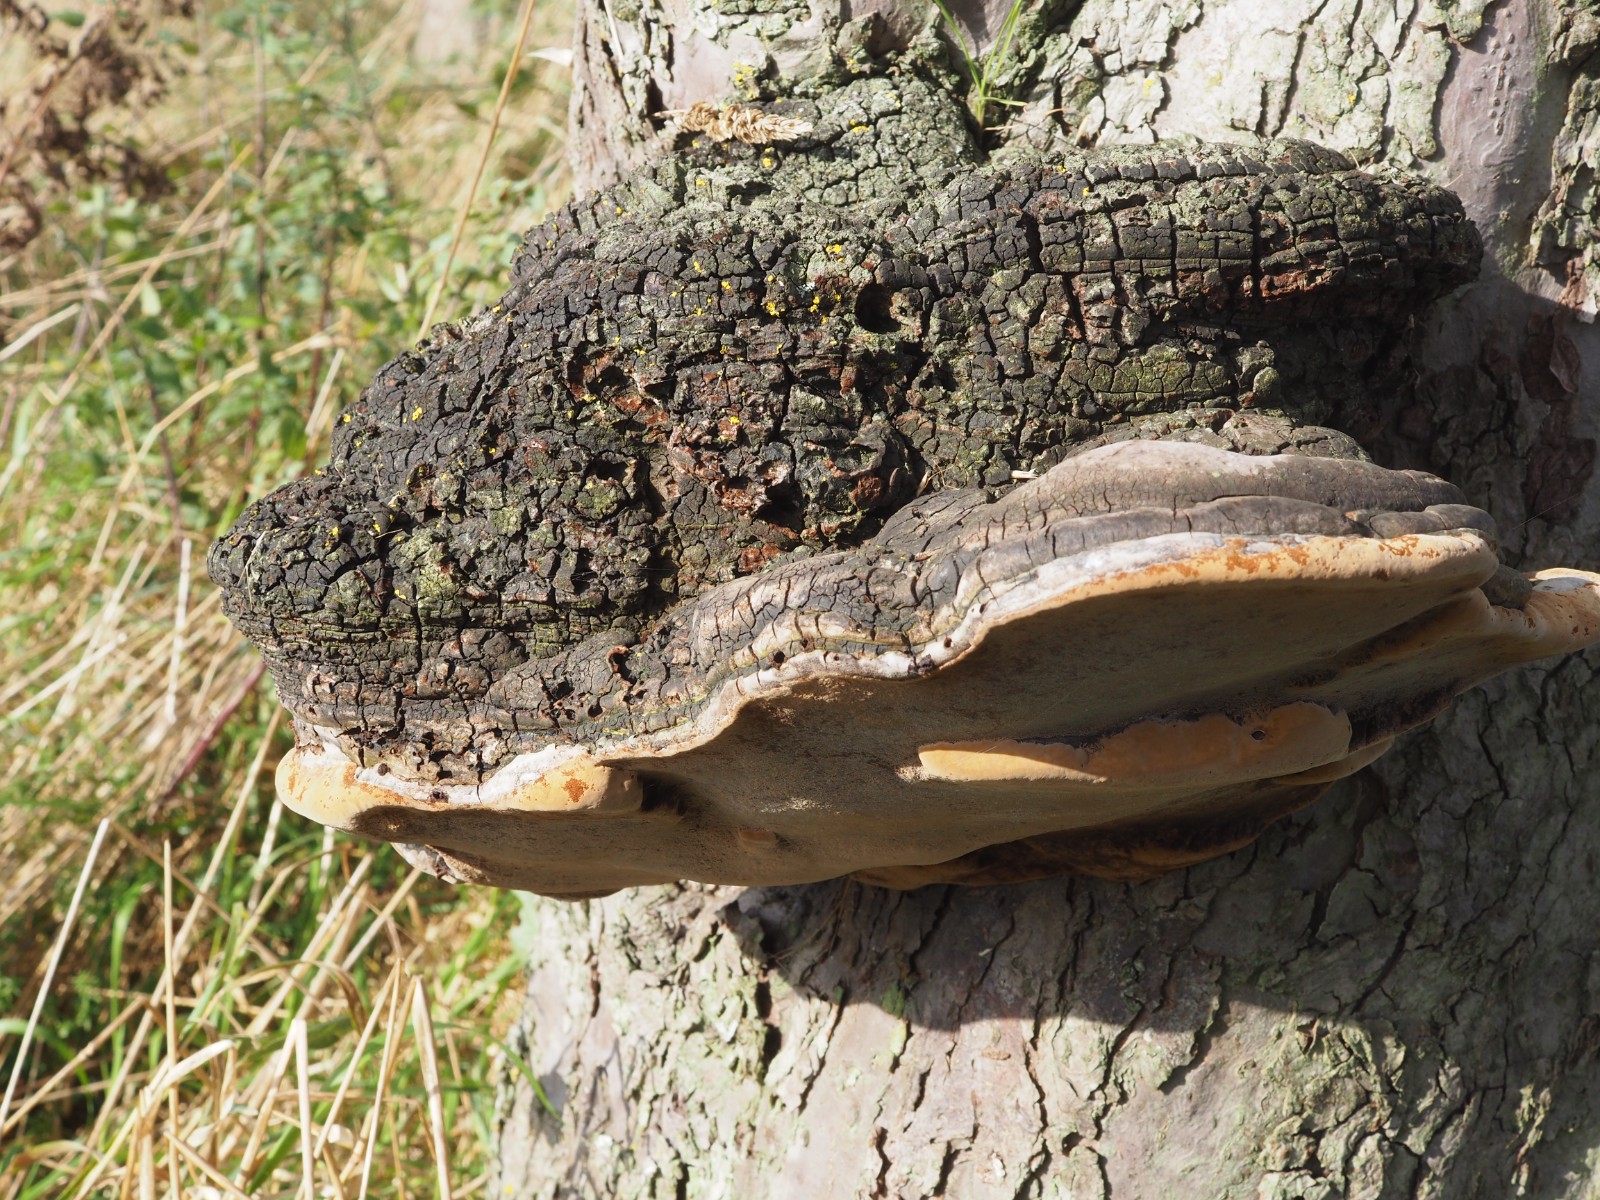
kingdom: Fungi
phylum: Basidiomycota
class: Agaricomycetes
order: Hymenochaetales
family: Hymenochaetaceae
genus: Phellinus
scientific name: Phellinus
